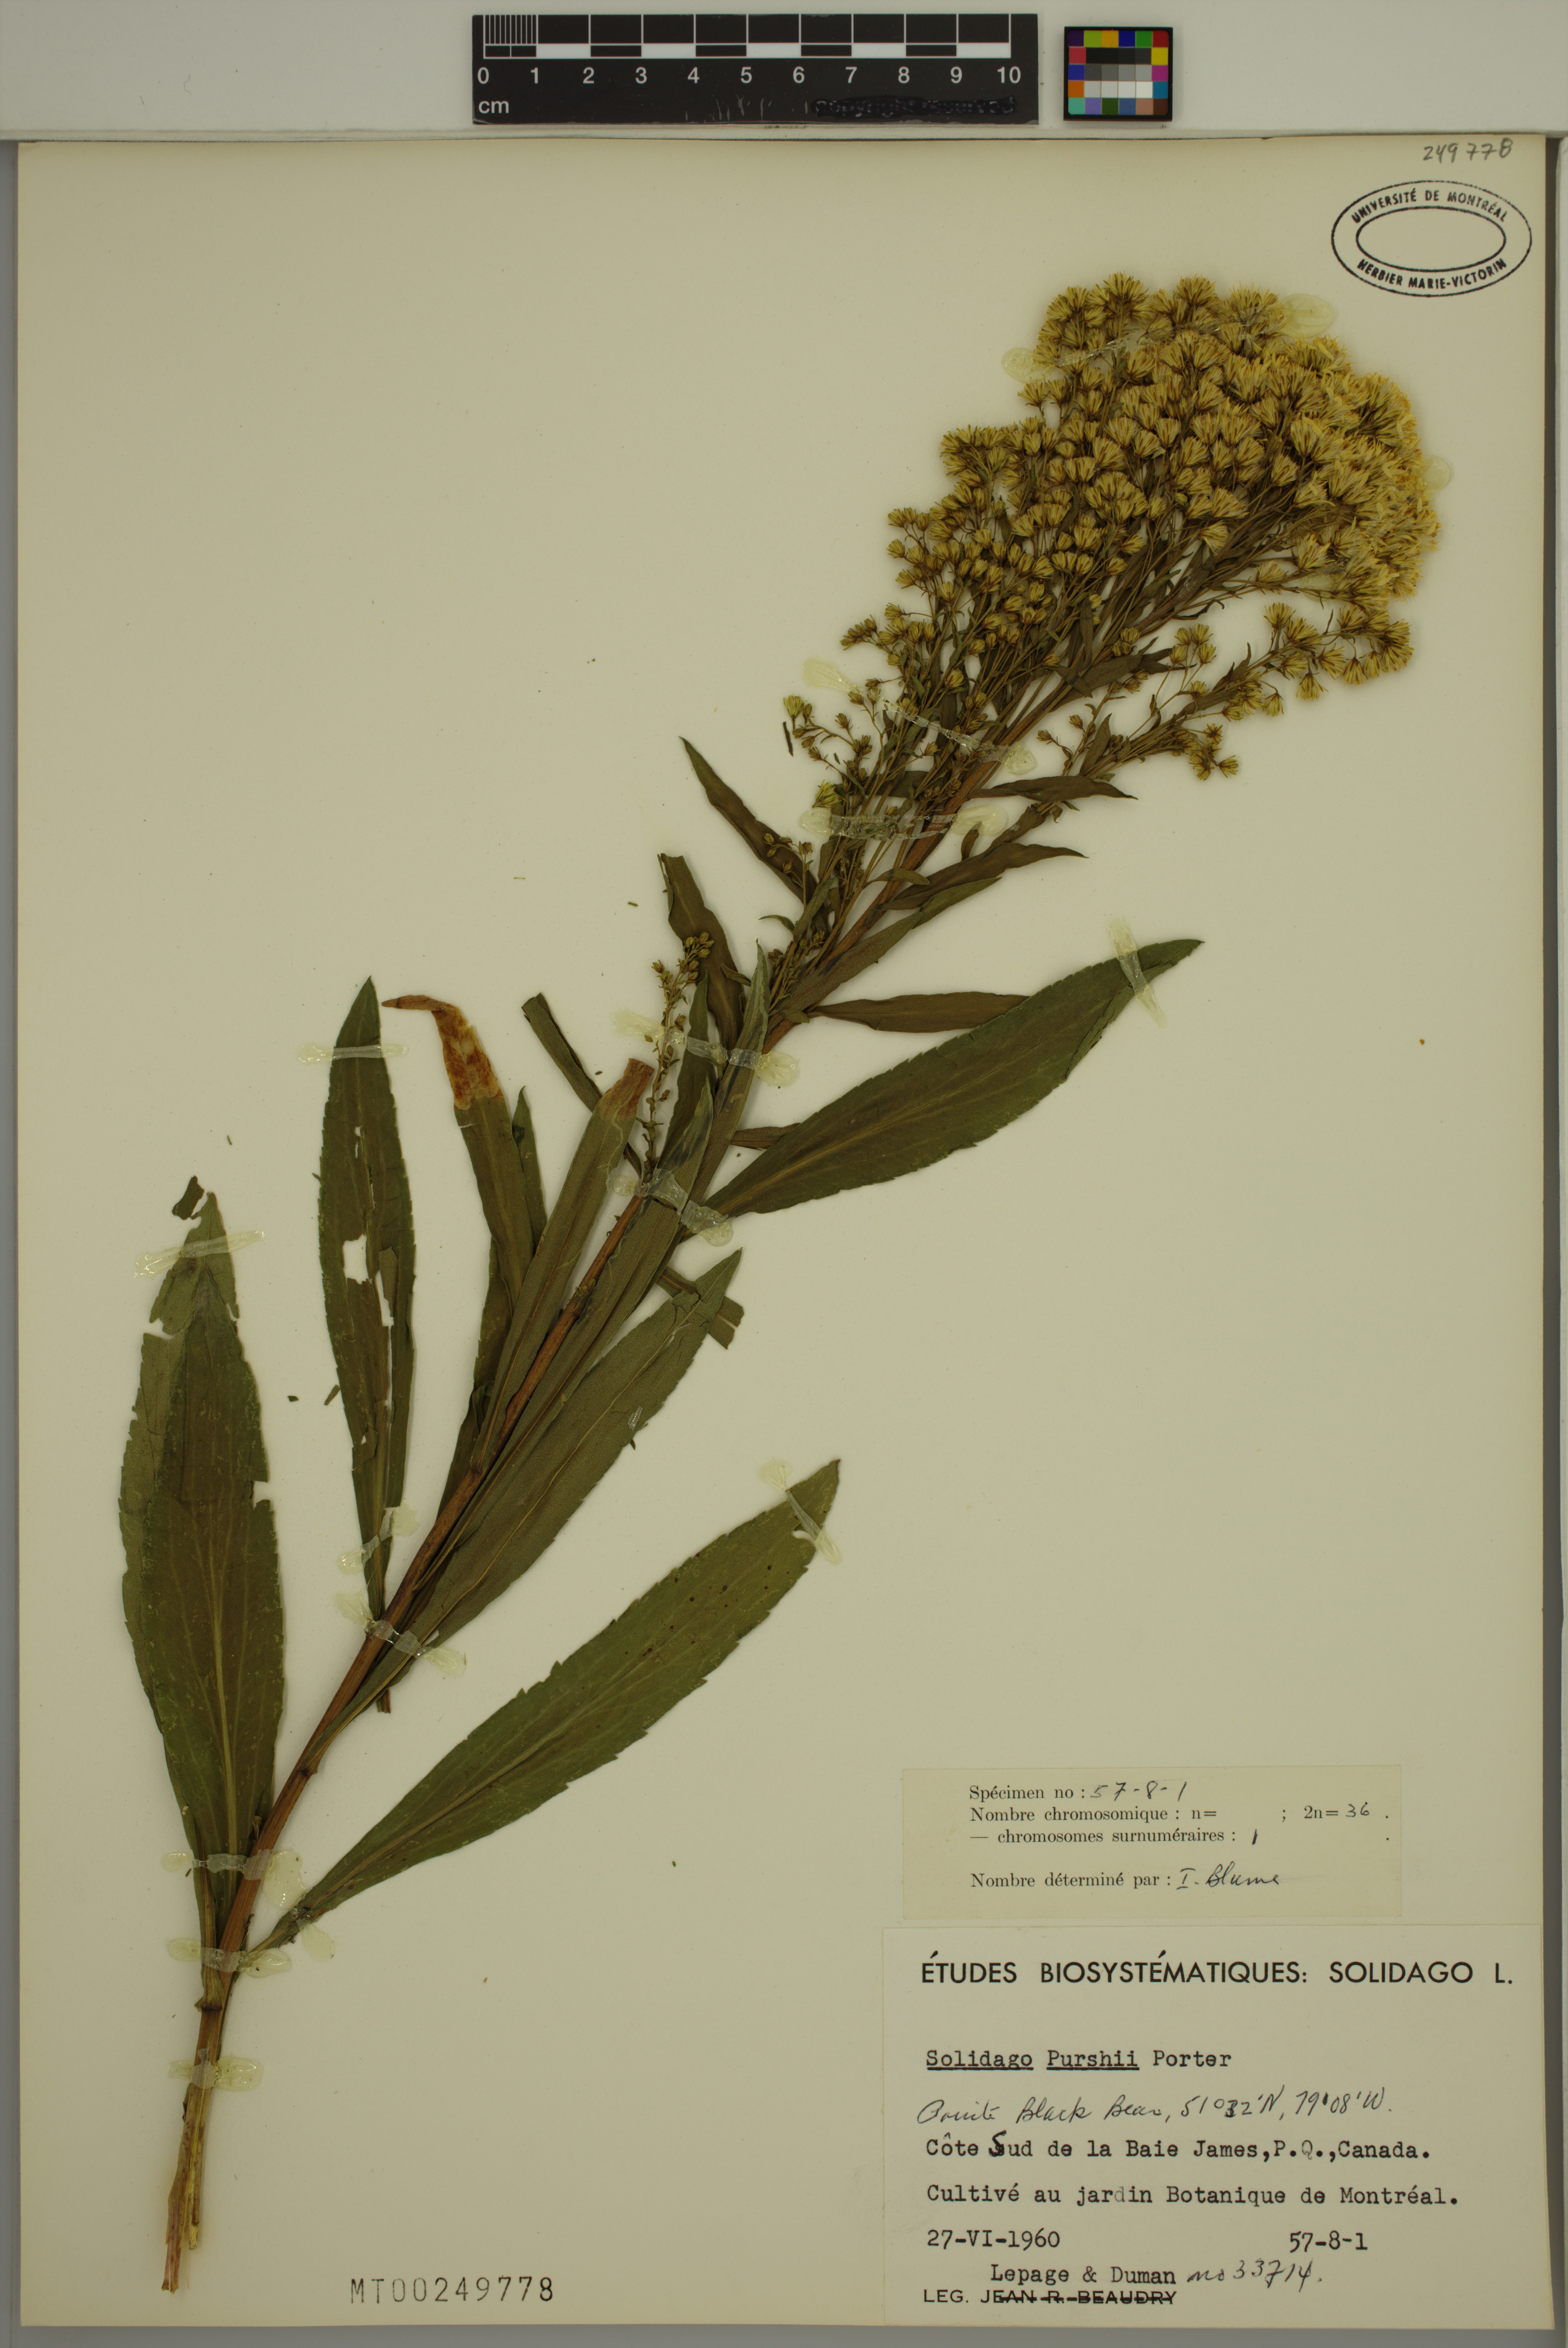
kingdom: Plantae
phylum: Tracheophyta
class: Magnoliopsida
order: Asterales
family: Asteraceae
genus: Solidago
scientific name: Solidago uliginosa
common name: Bog goldenrod
